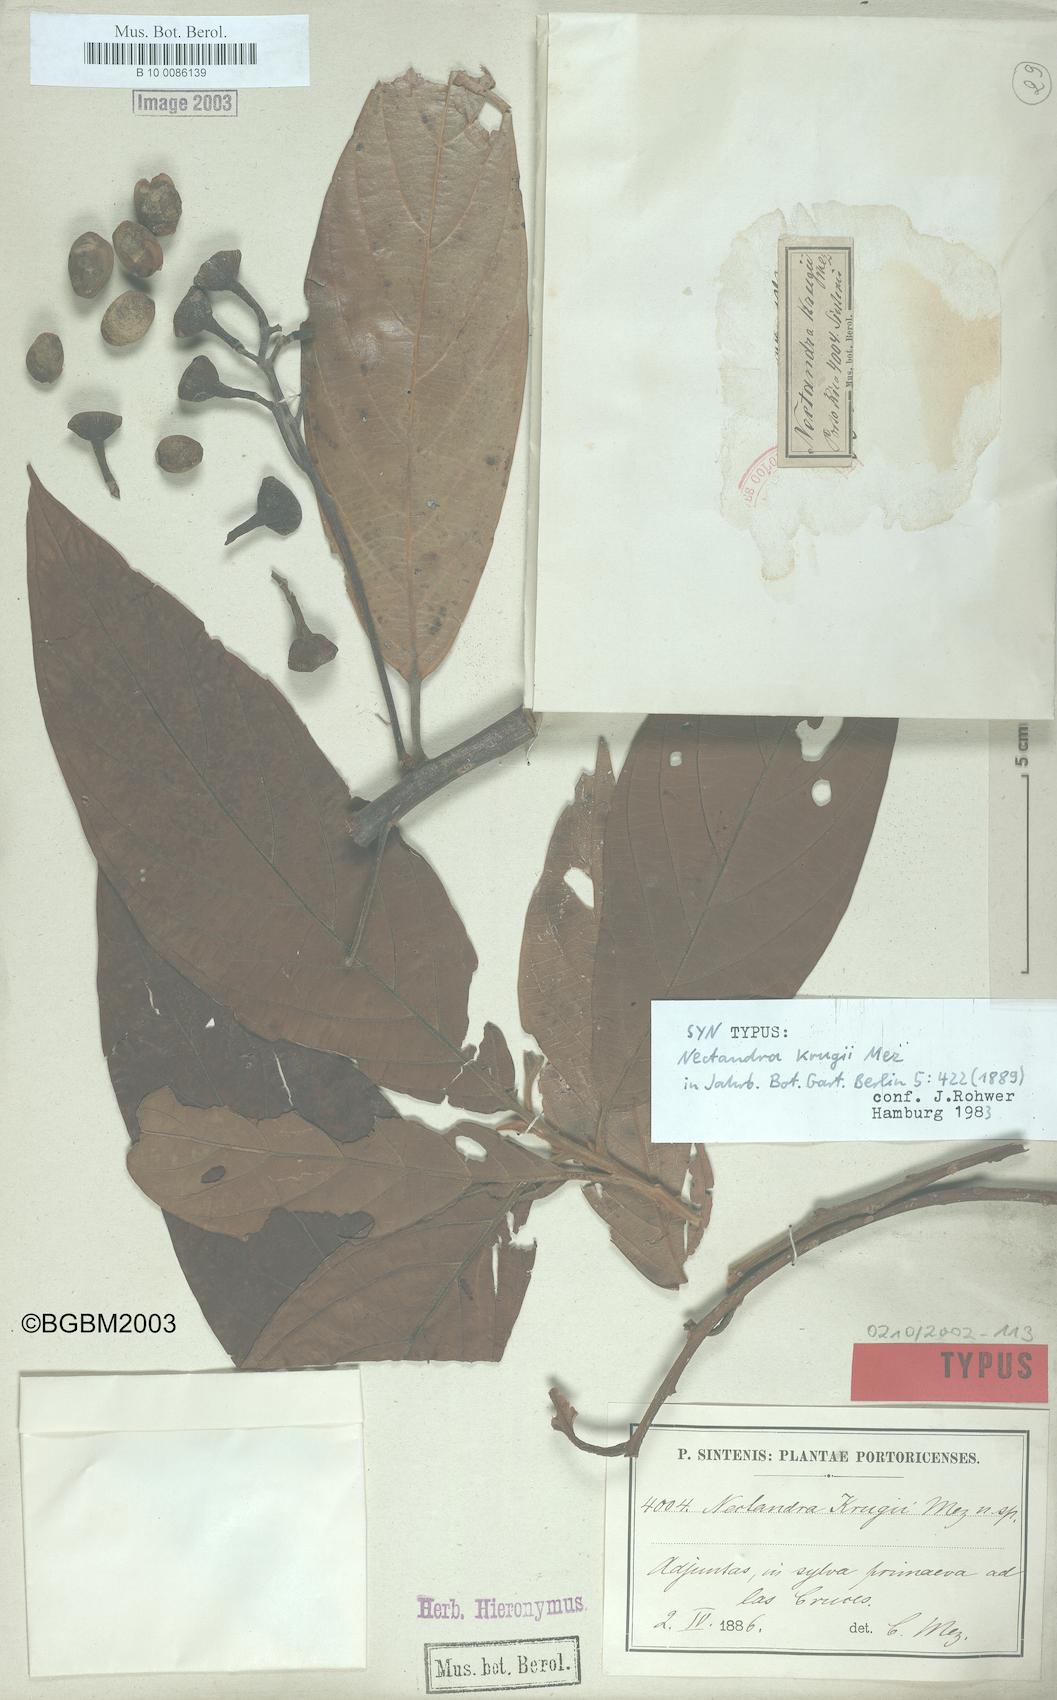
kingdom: Plantae
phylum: Tracheophyta
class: Magnoliopsida
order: Laurales
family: Lauraceae
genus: Nectandra
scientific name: Nectandra krugii
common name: Black sweetwood
